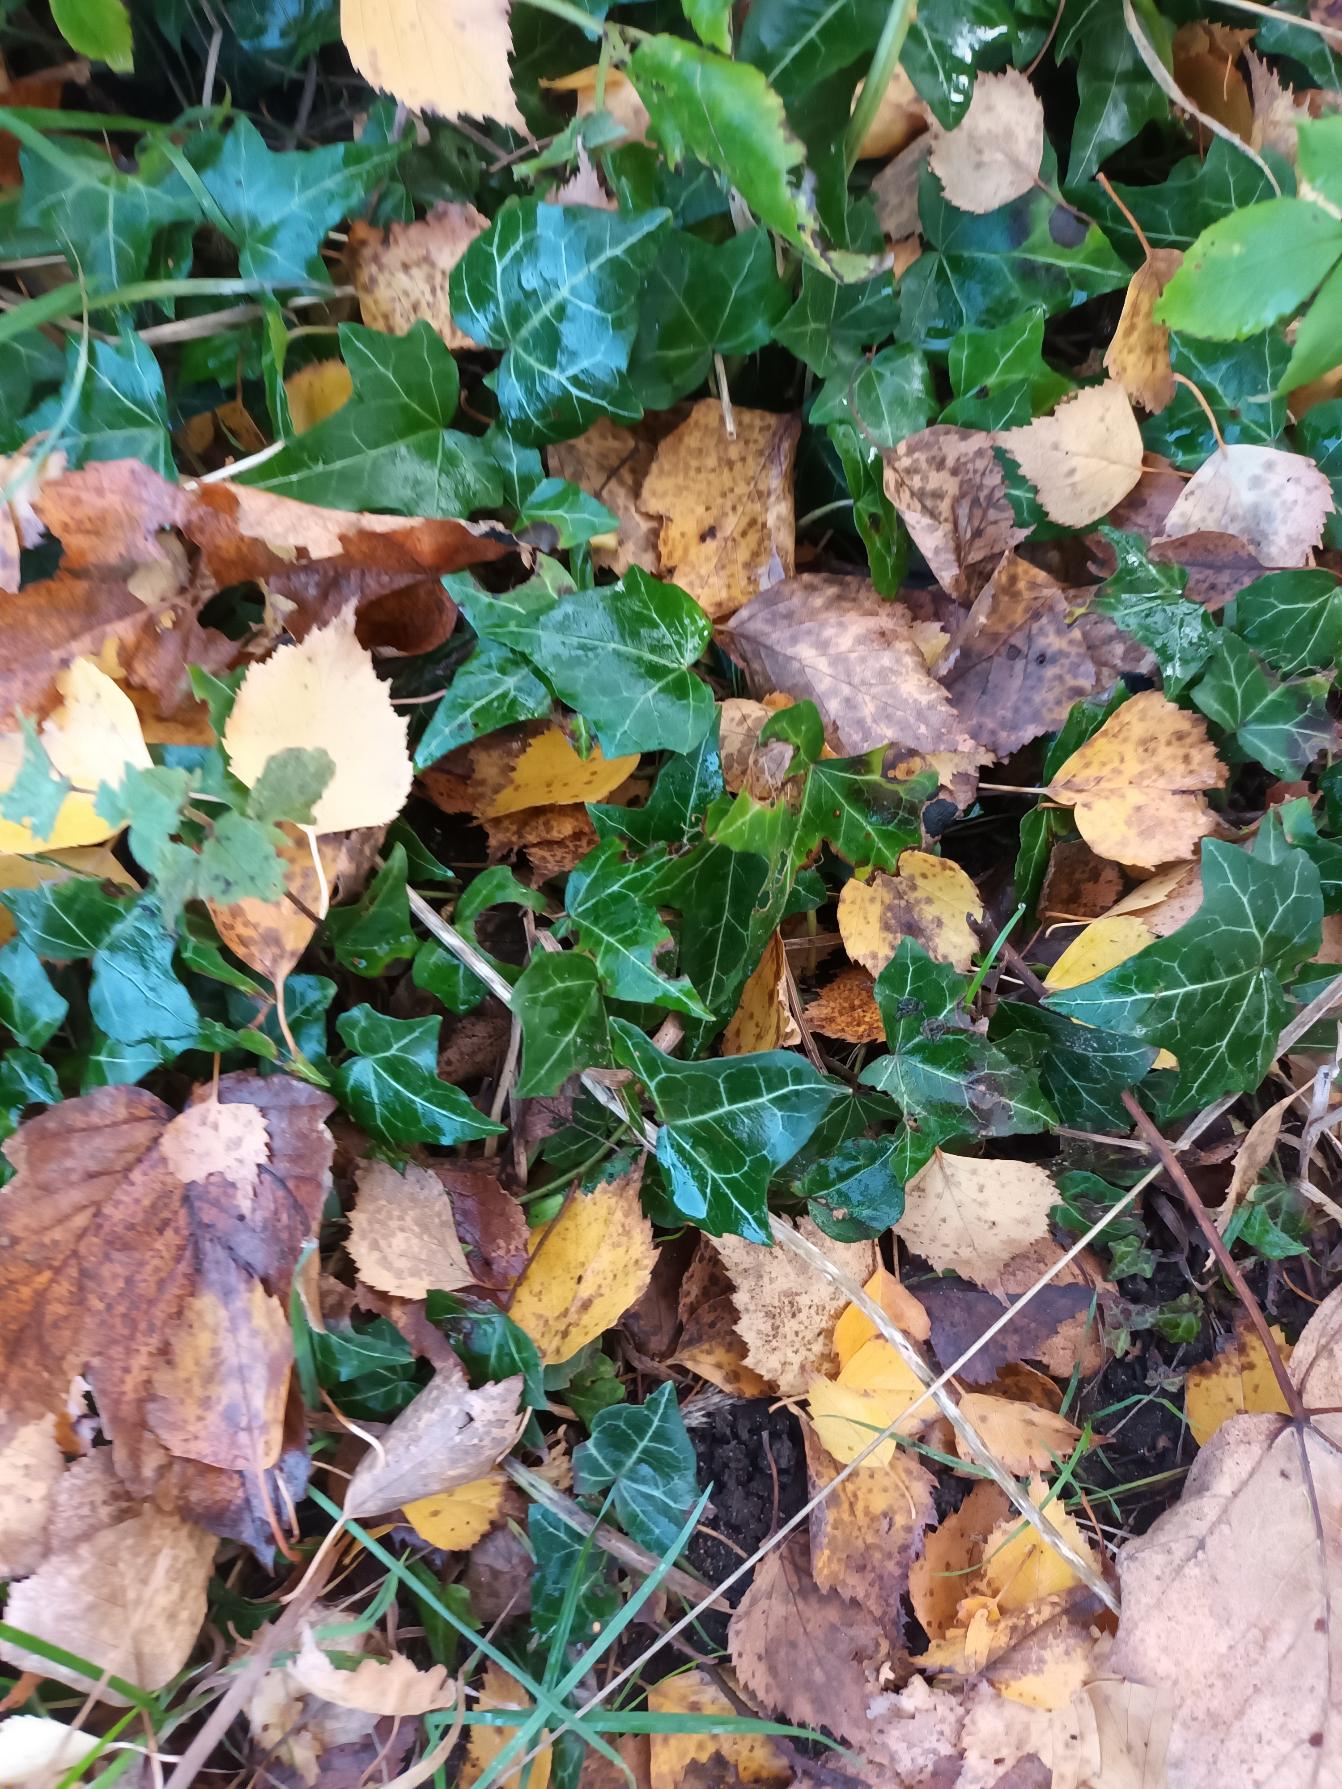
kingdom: Plantae
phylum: Tracheophyta
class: Magnoliopsida
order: Apiales
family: Araliaceae
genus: Hedera
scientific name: Hedera helix
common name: Vedbend
